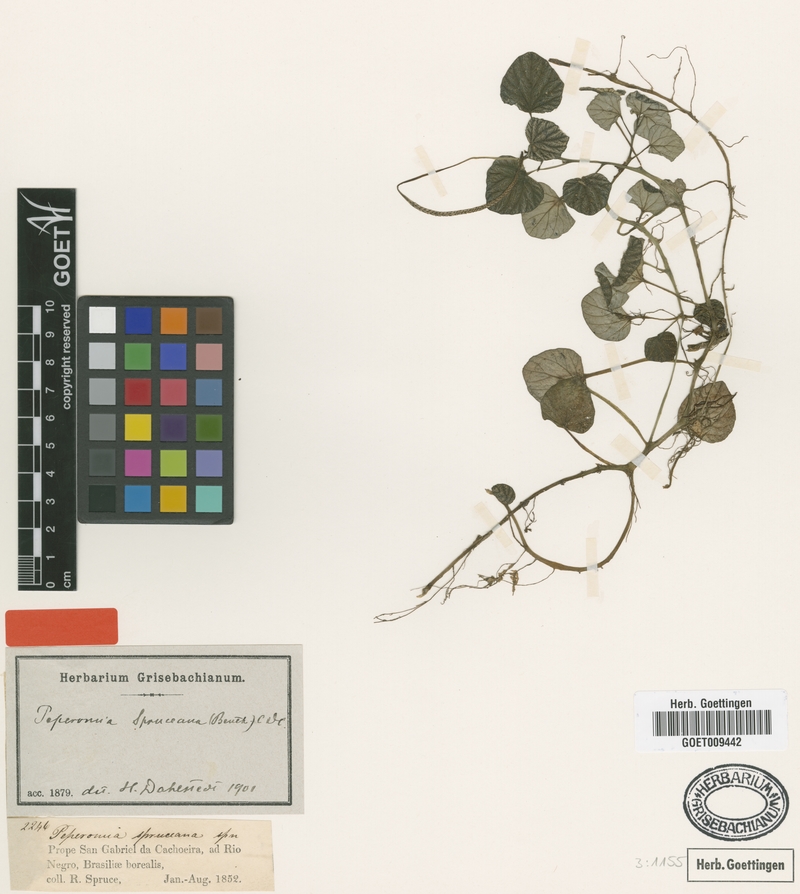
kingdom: Plantae
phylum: Tracheophyta
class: Magnoliopsida
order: Piperales
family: Piperaceae
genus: Peperomia
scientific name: Peperomia spruceana
